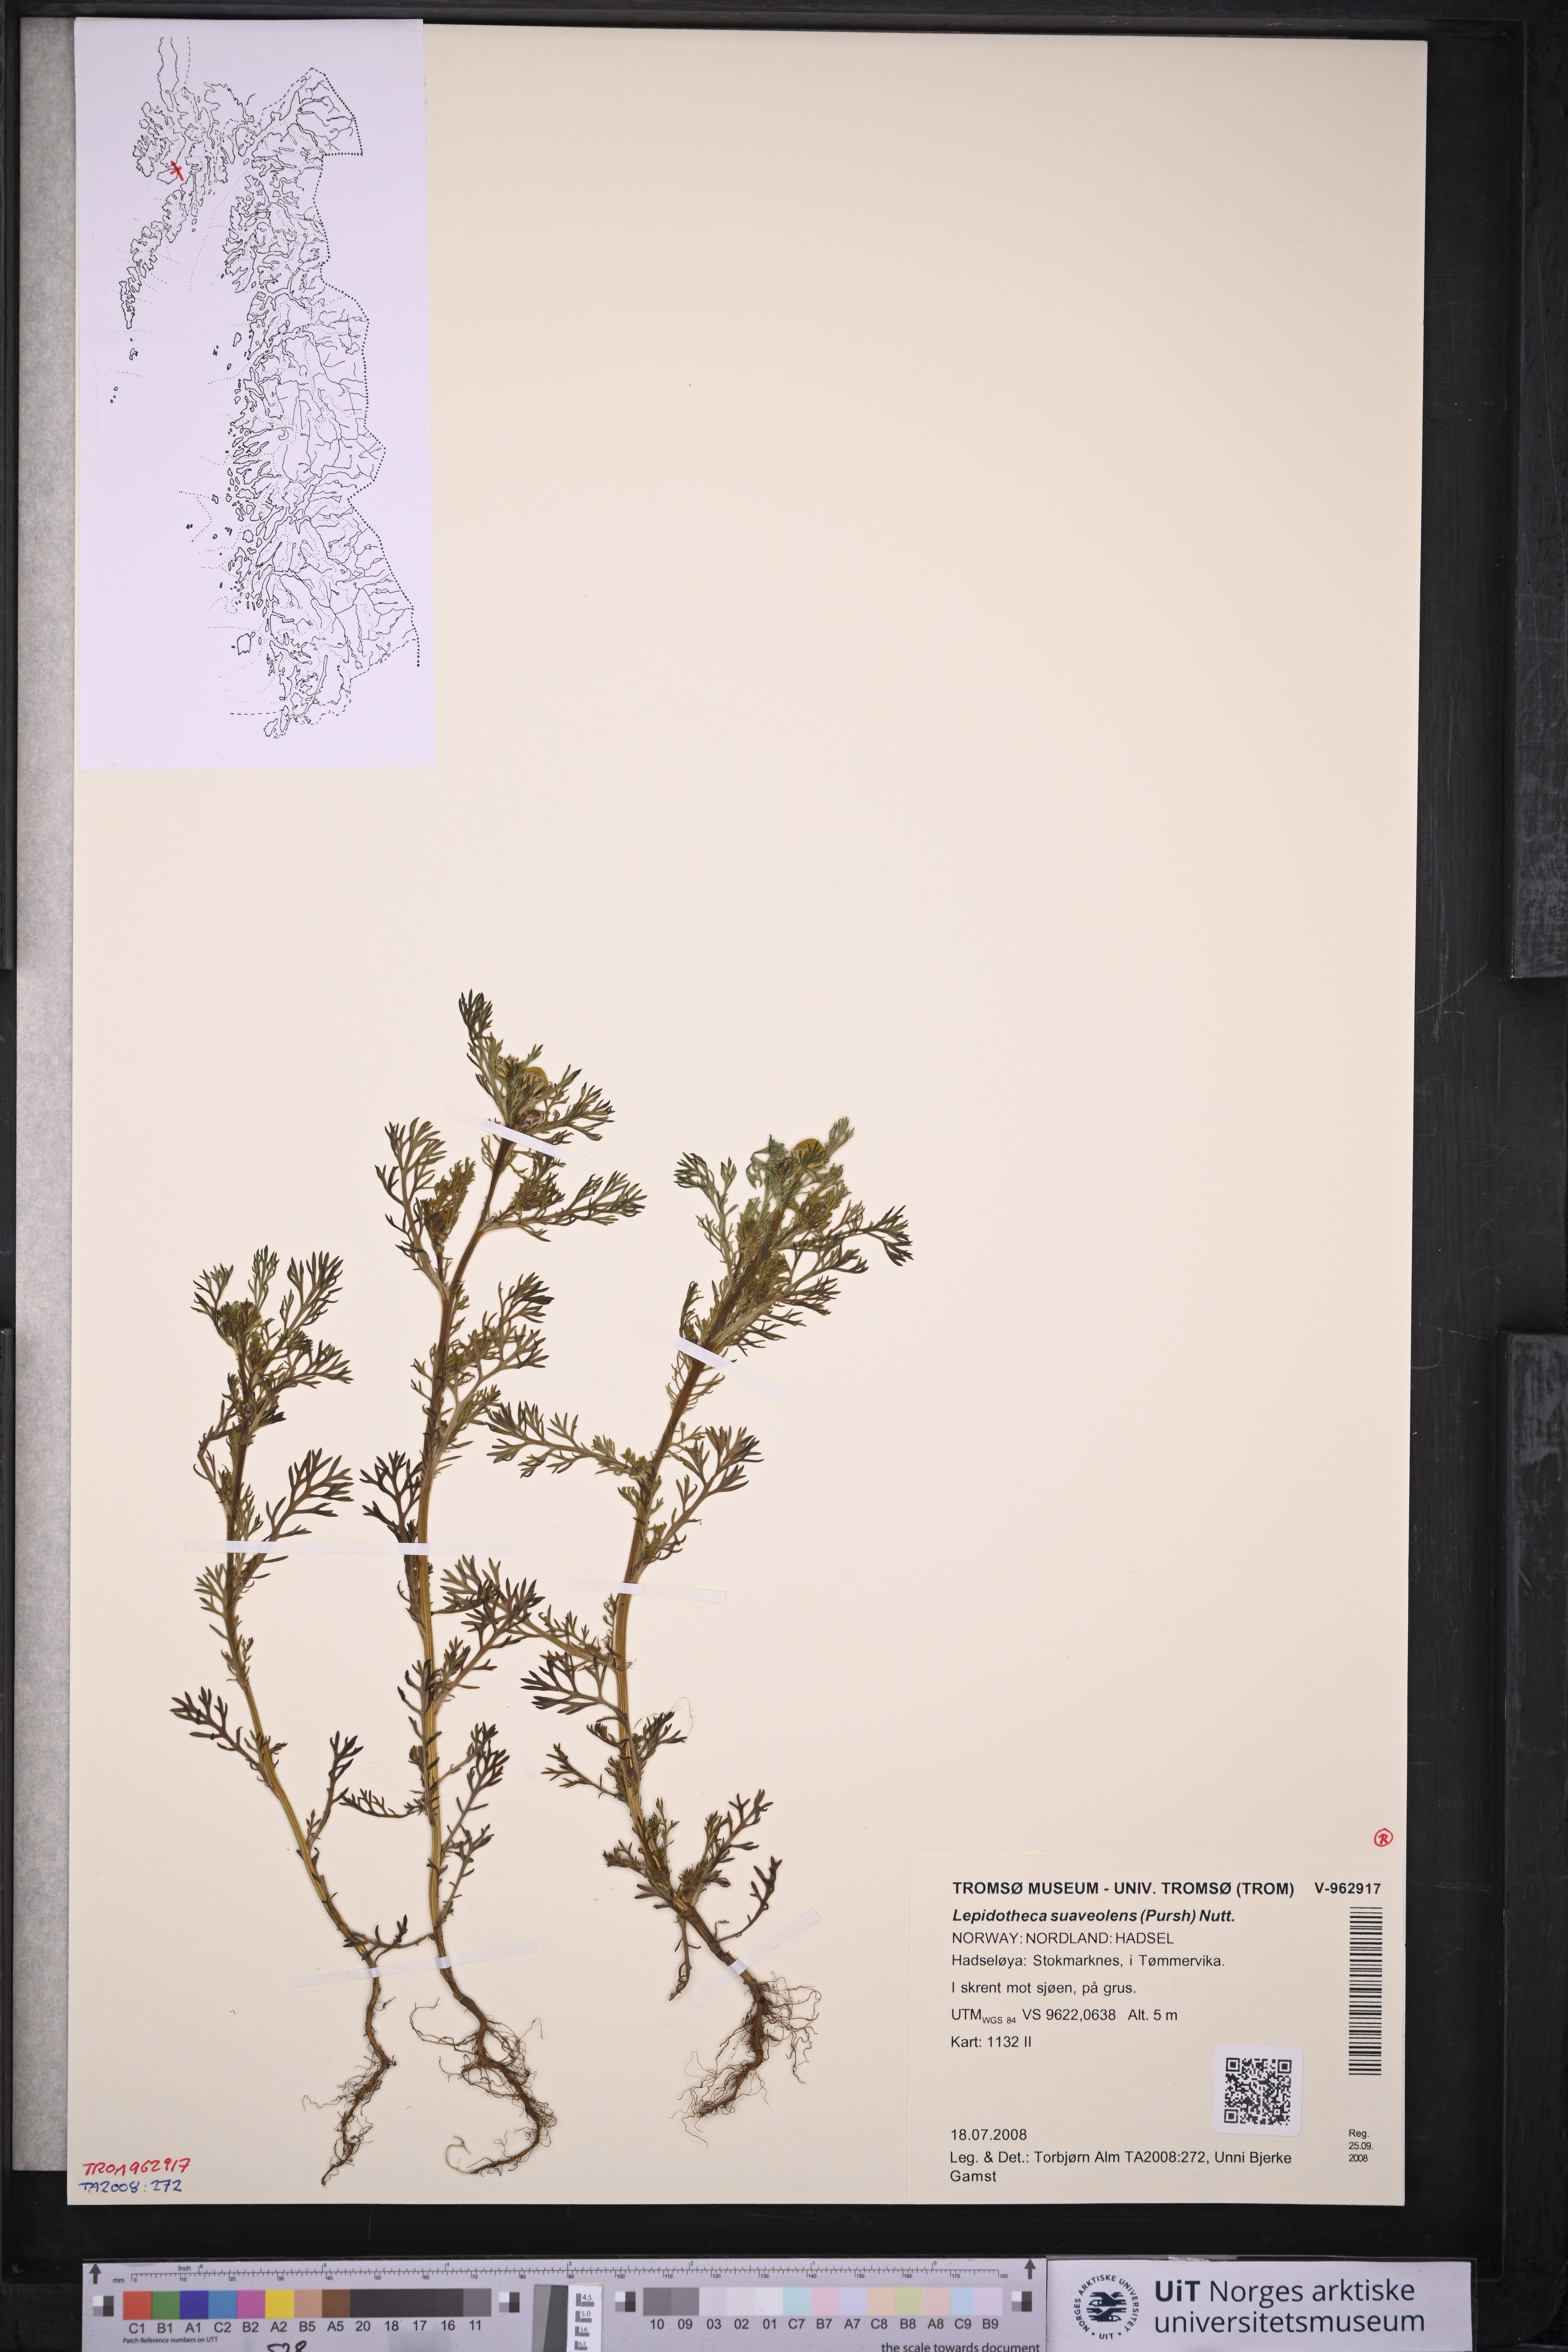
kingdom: Plantae
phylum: Tracheophyta
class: Magnoliopsida
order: Asterales
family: Asteraceae
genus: Matricaria
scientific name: Matricaria discoidea
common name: Disc mayweed
